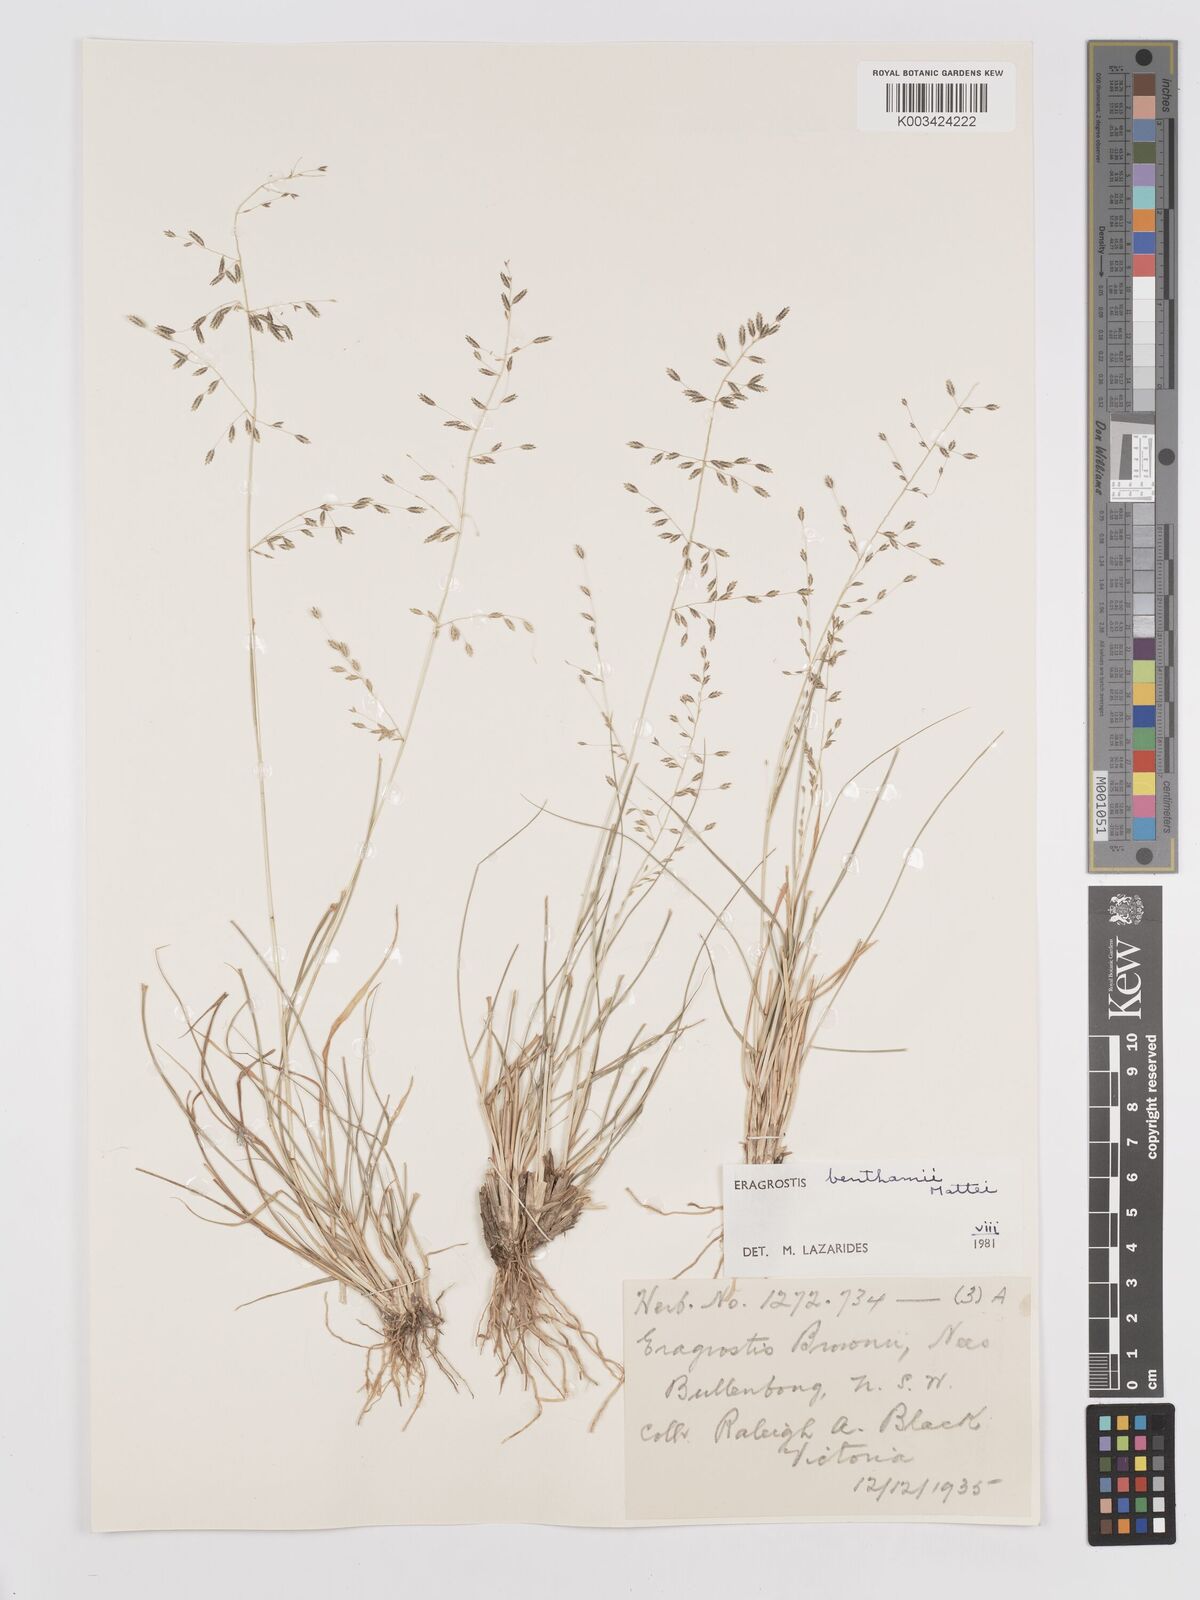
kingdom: Plantae
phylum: Tracheophyta
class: Liliopsida
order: Poales
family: Poaceae
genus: Eragrostis
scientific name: Eragrostis brownii
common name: Lovegrass
